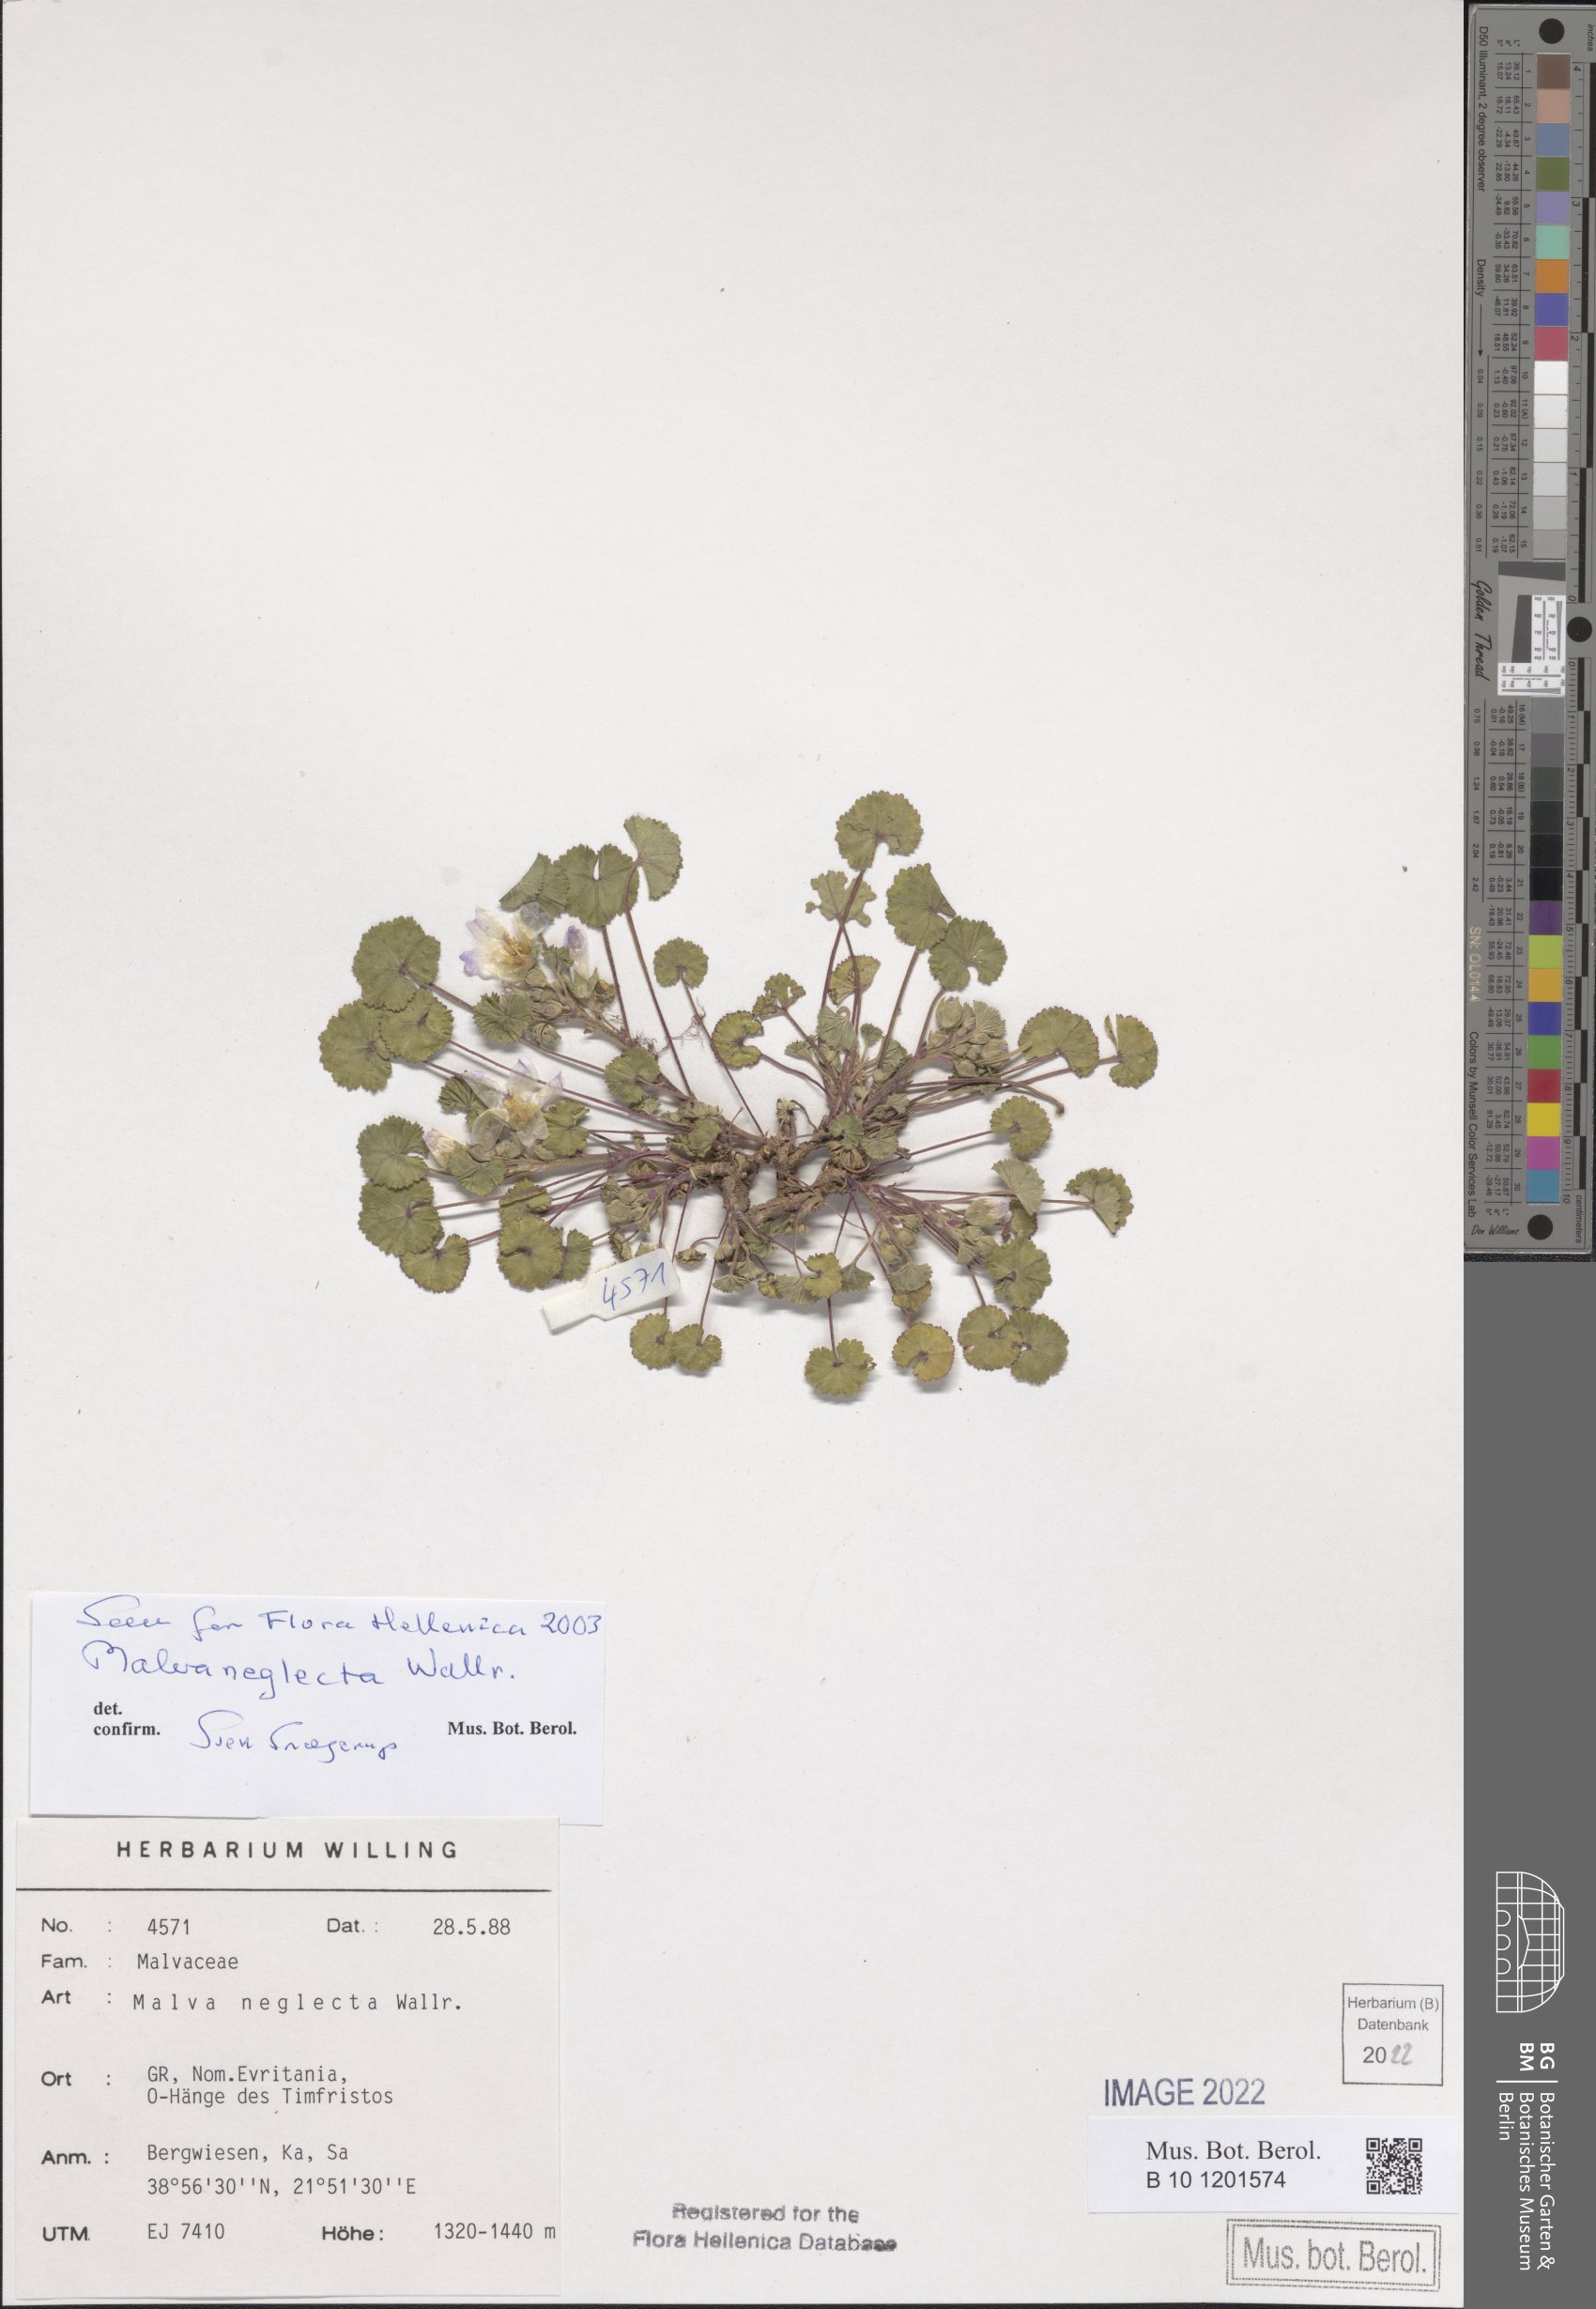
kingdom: Plantae
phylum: Tracheophyta
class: Magnoliopsida
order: Malvales
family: Malvaceae
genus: Malva
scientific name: Malva neglecta
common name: Common mallow
